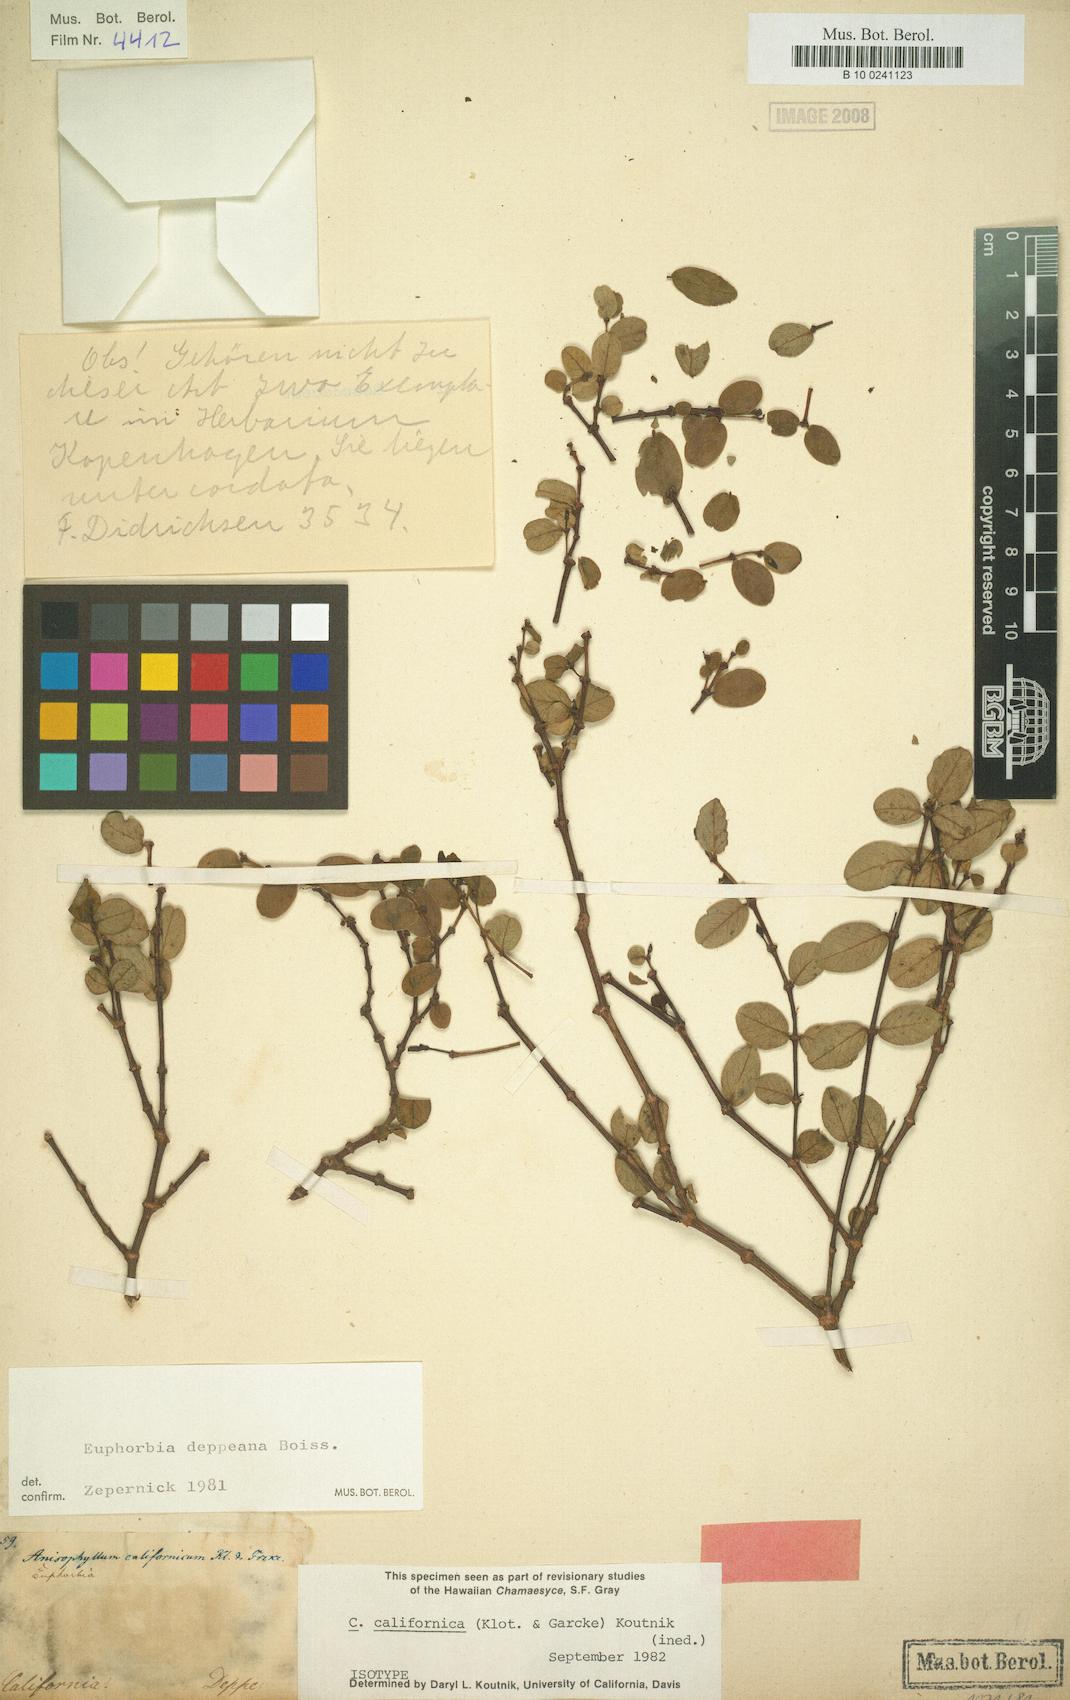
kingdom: Plantae
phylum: Tracheophyta
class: Magnoliopsida
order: Malpighiales
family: Euphorbiaceae
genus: Chamaesyce
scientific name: Chamaesyce
